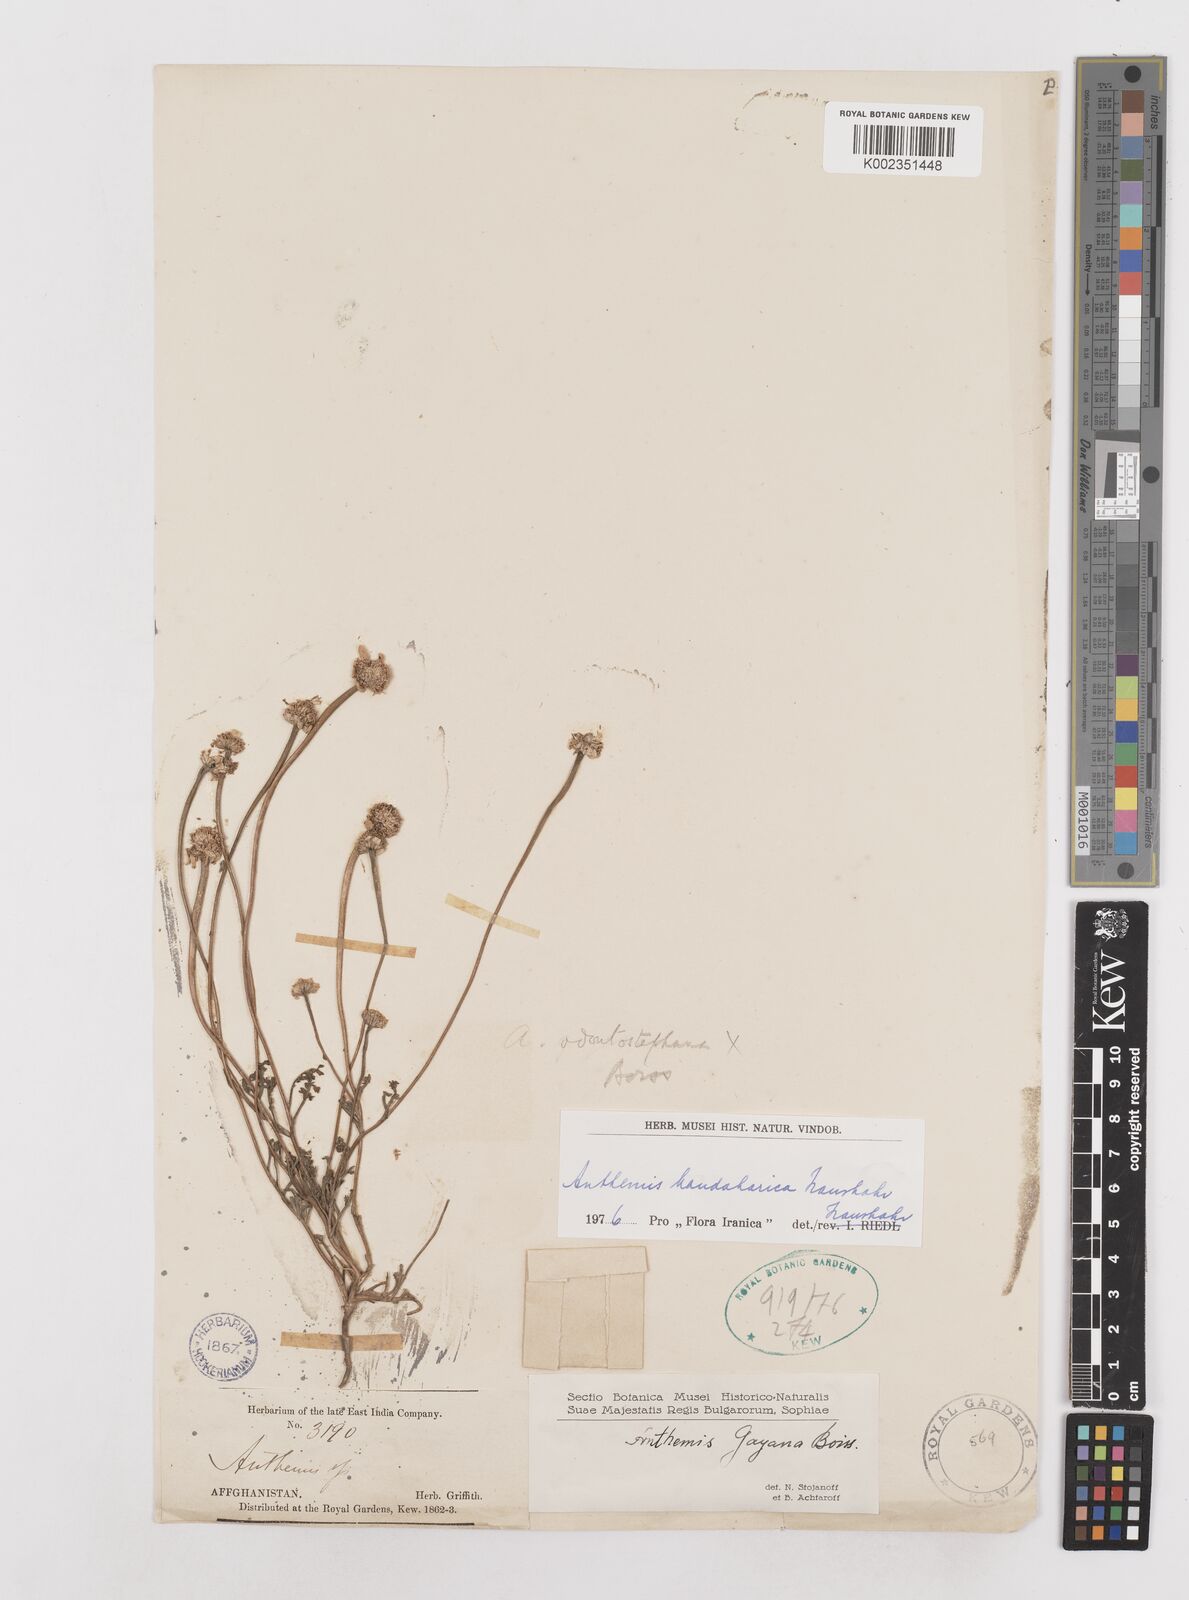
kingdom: Plantae
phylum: Tracheophyta
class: Magnoliopsida
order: Asterales
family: Asteraceae
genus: Anthemis
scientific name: Anthemis gayana
